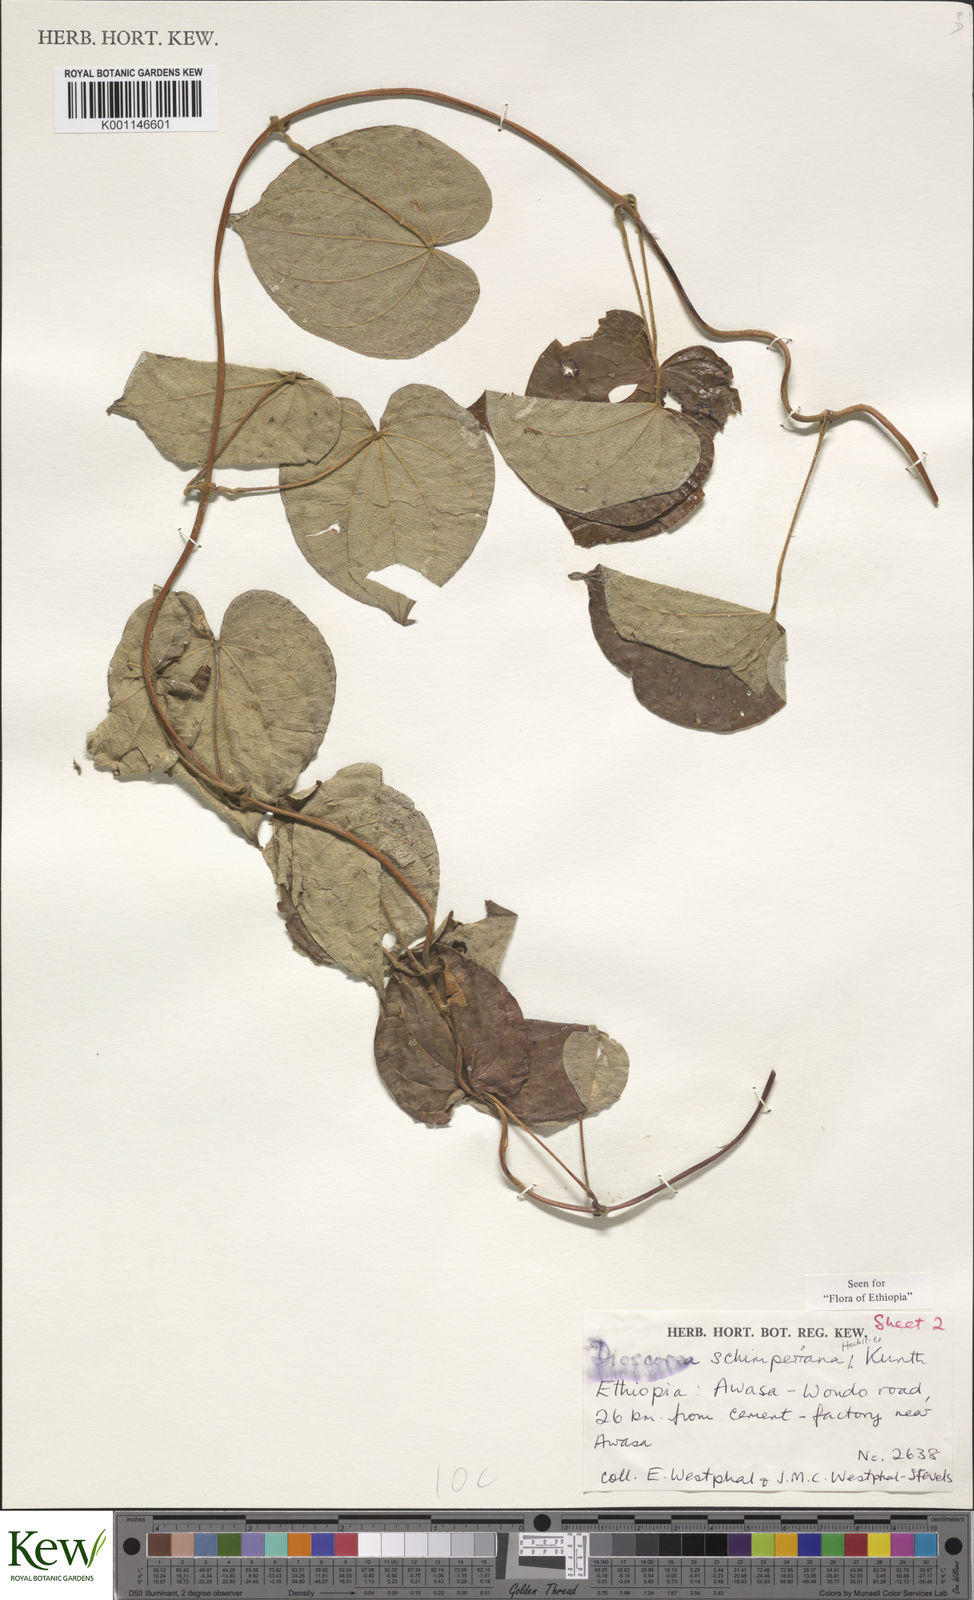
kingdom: Plantae
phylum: Tracheophyta
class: Liliopsida
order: Dioscoreales
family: Dioscoreaceae
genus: Dioscorea
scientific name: Dioscorea schimperiana
